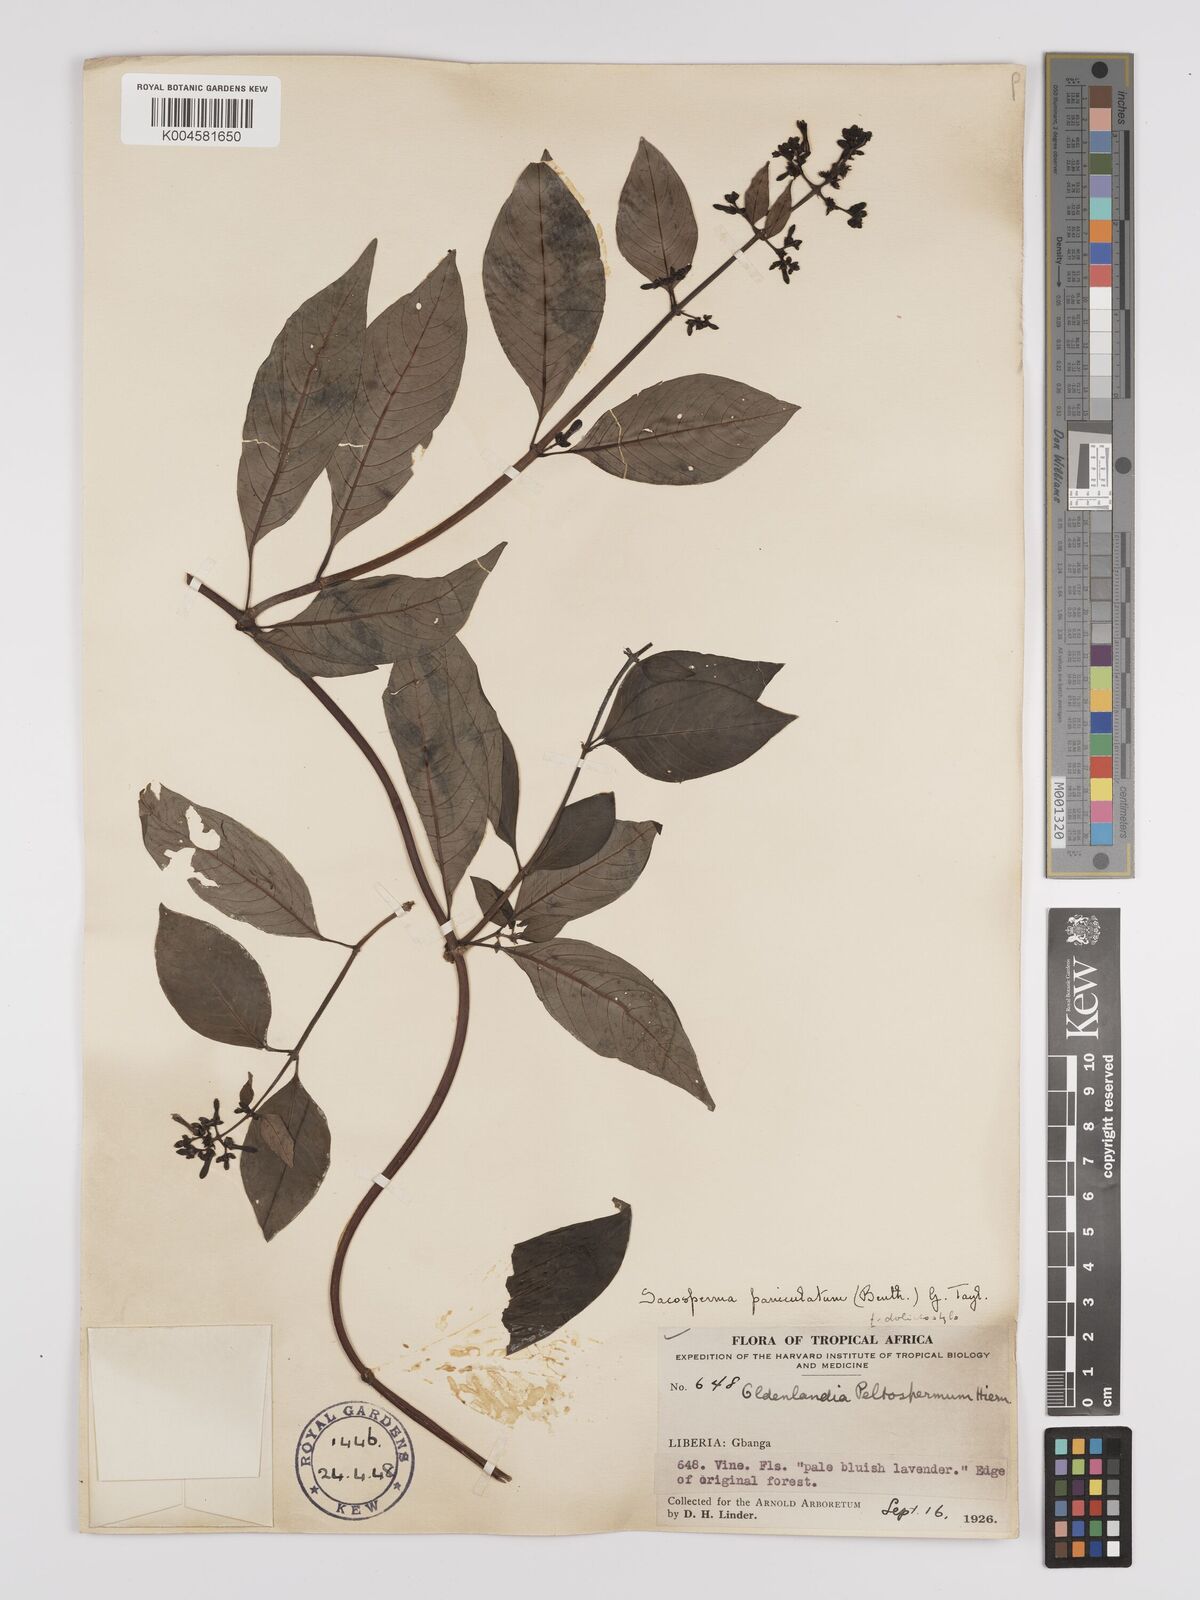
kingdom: Plantae
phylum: Tracheophyta
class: Magnoliopsida
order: Gentianales
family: Rubiaceae
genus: Sacosperma
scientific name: Sacosperma paniculatum
